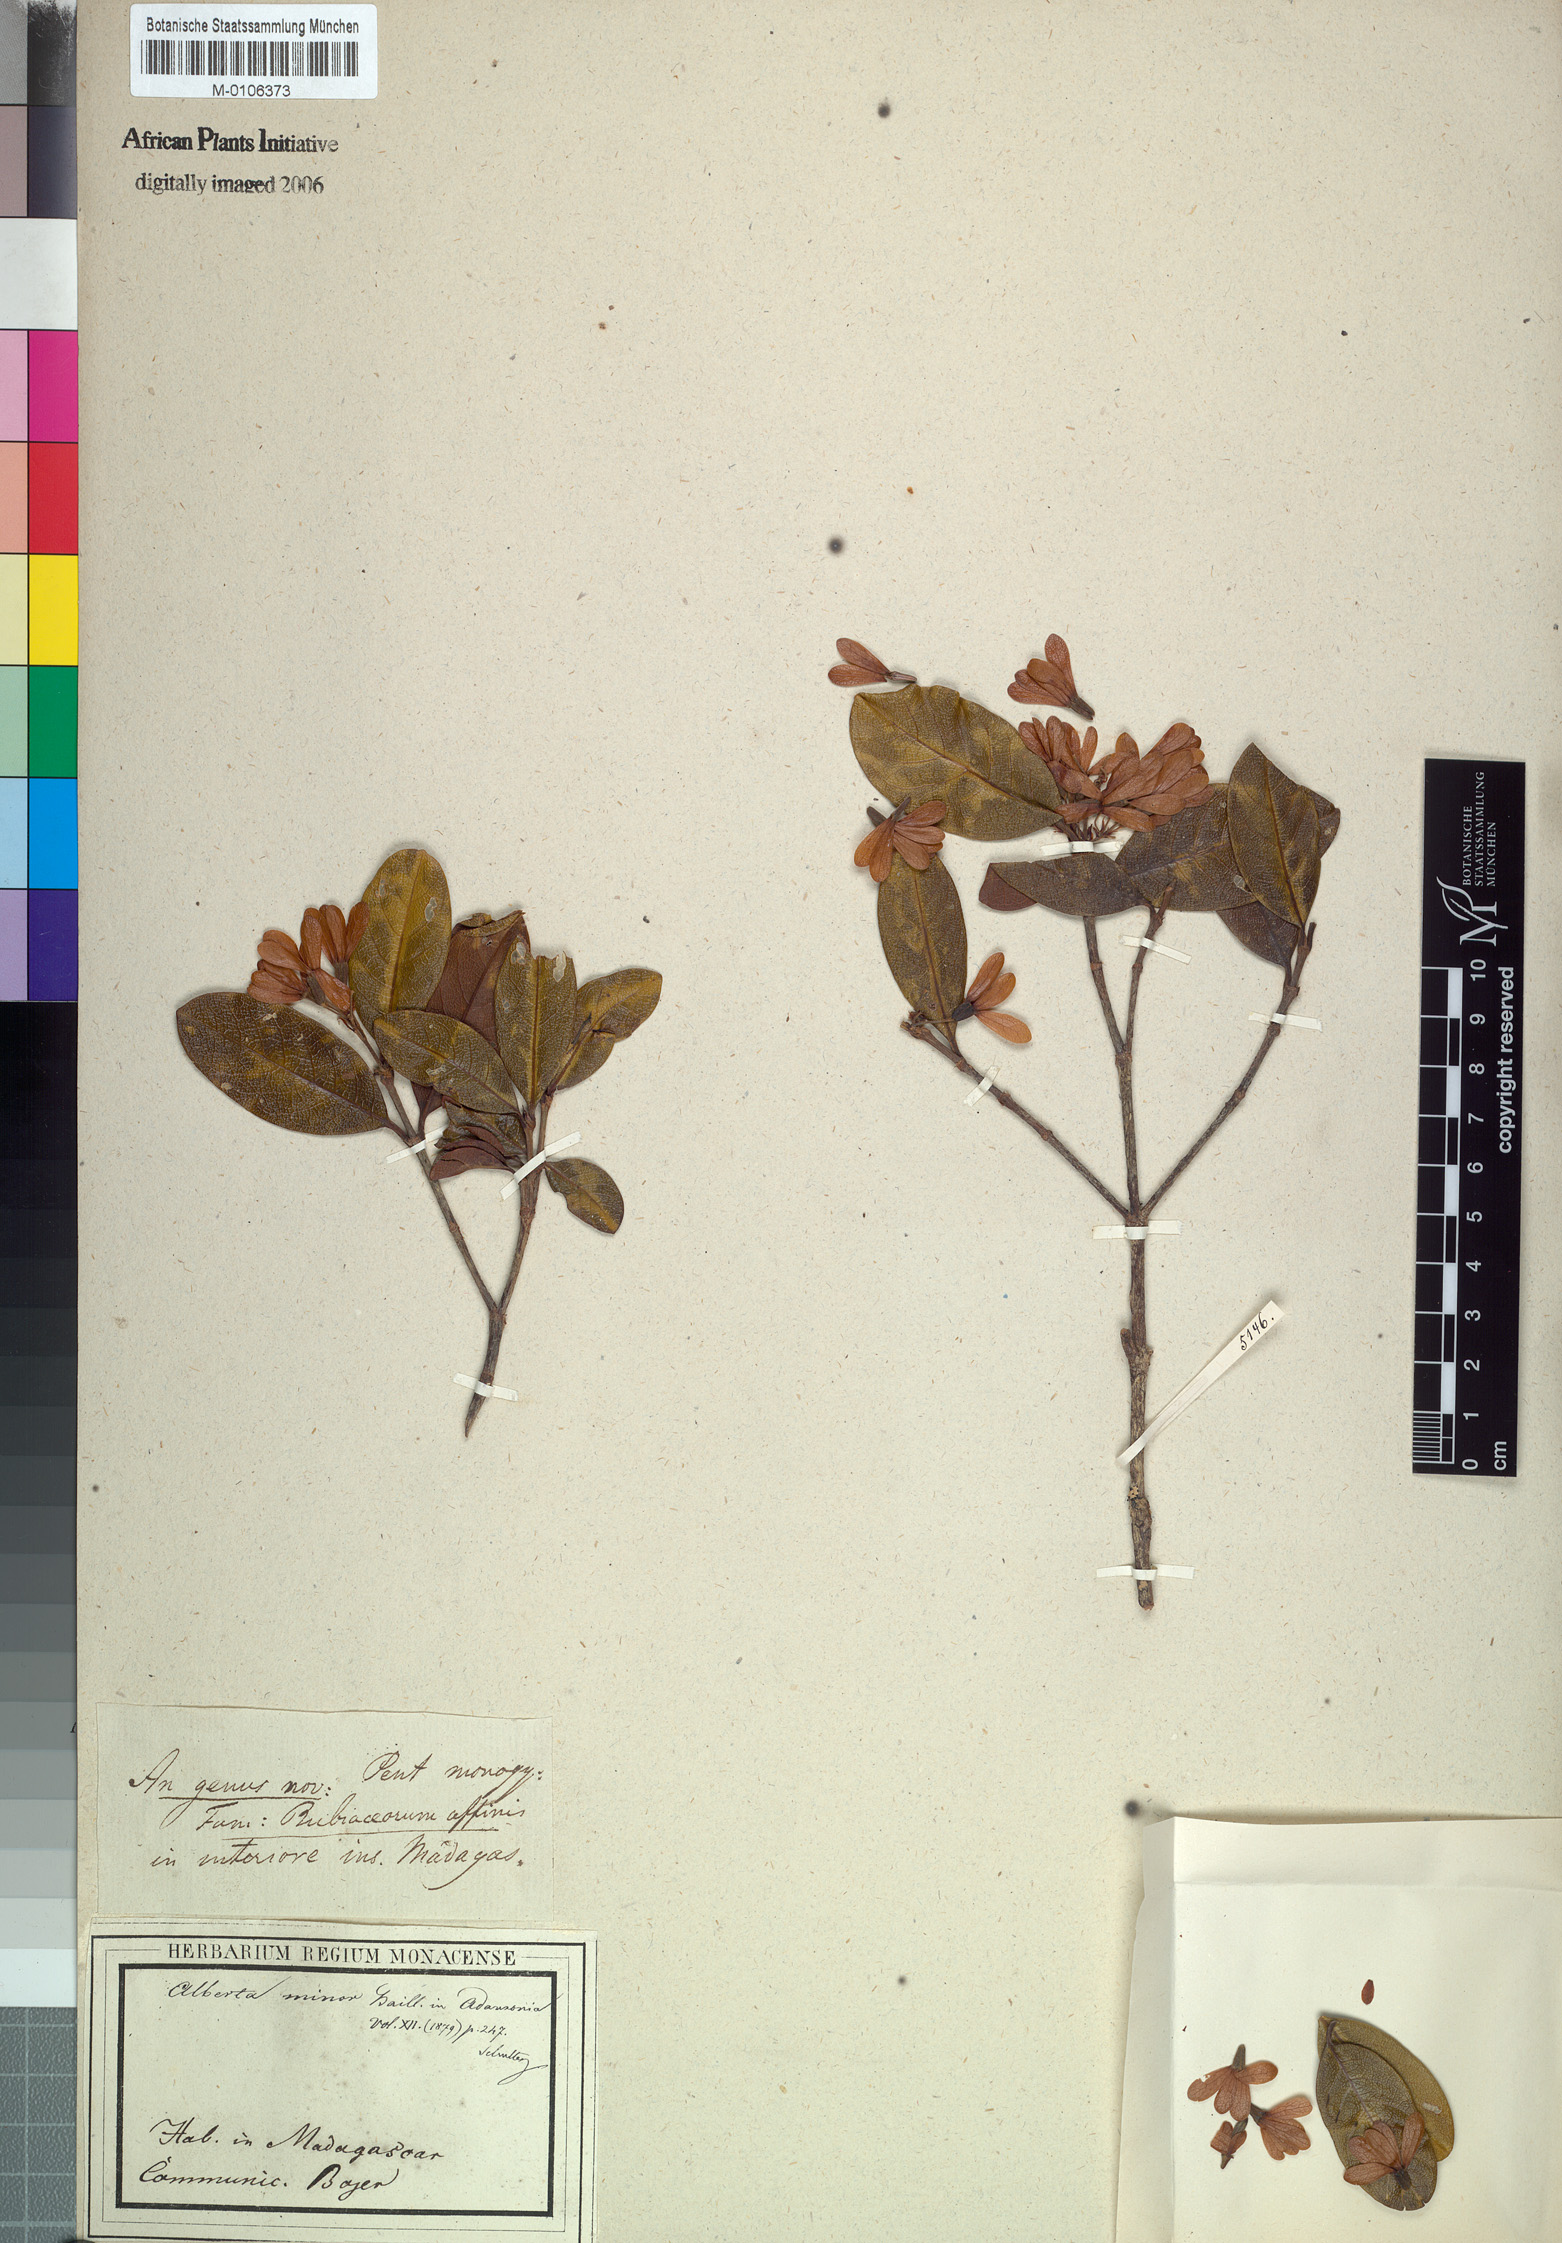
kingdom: Plantae
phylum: Tracheophyta
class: Magnoliopsida
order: Gentianales
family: Rubiaceae
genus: Razafimandimbisonia
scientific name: Razafimandimbisonia minor
